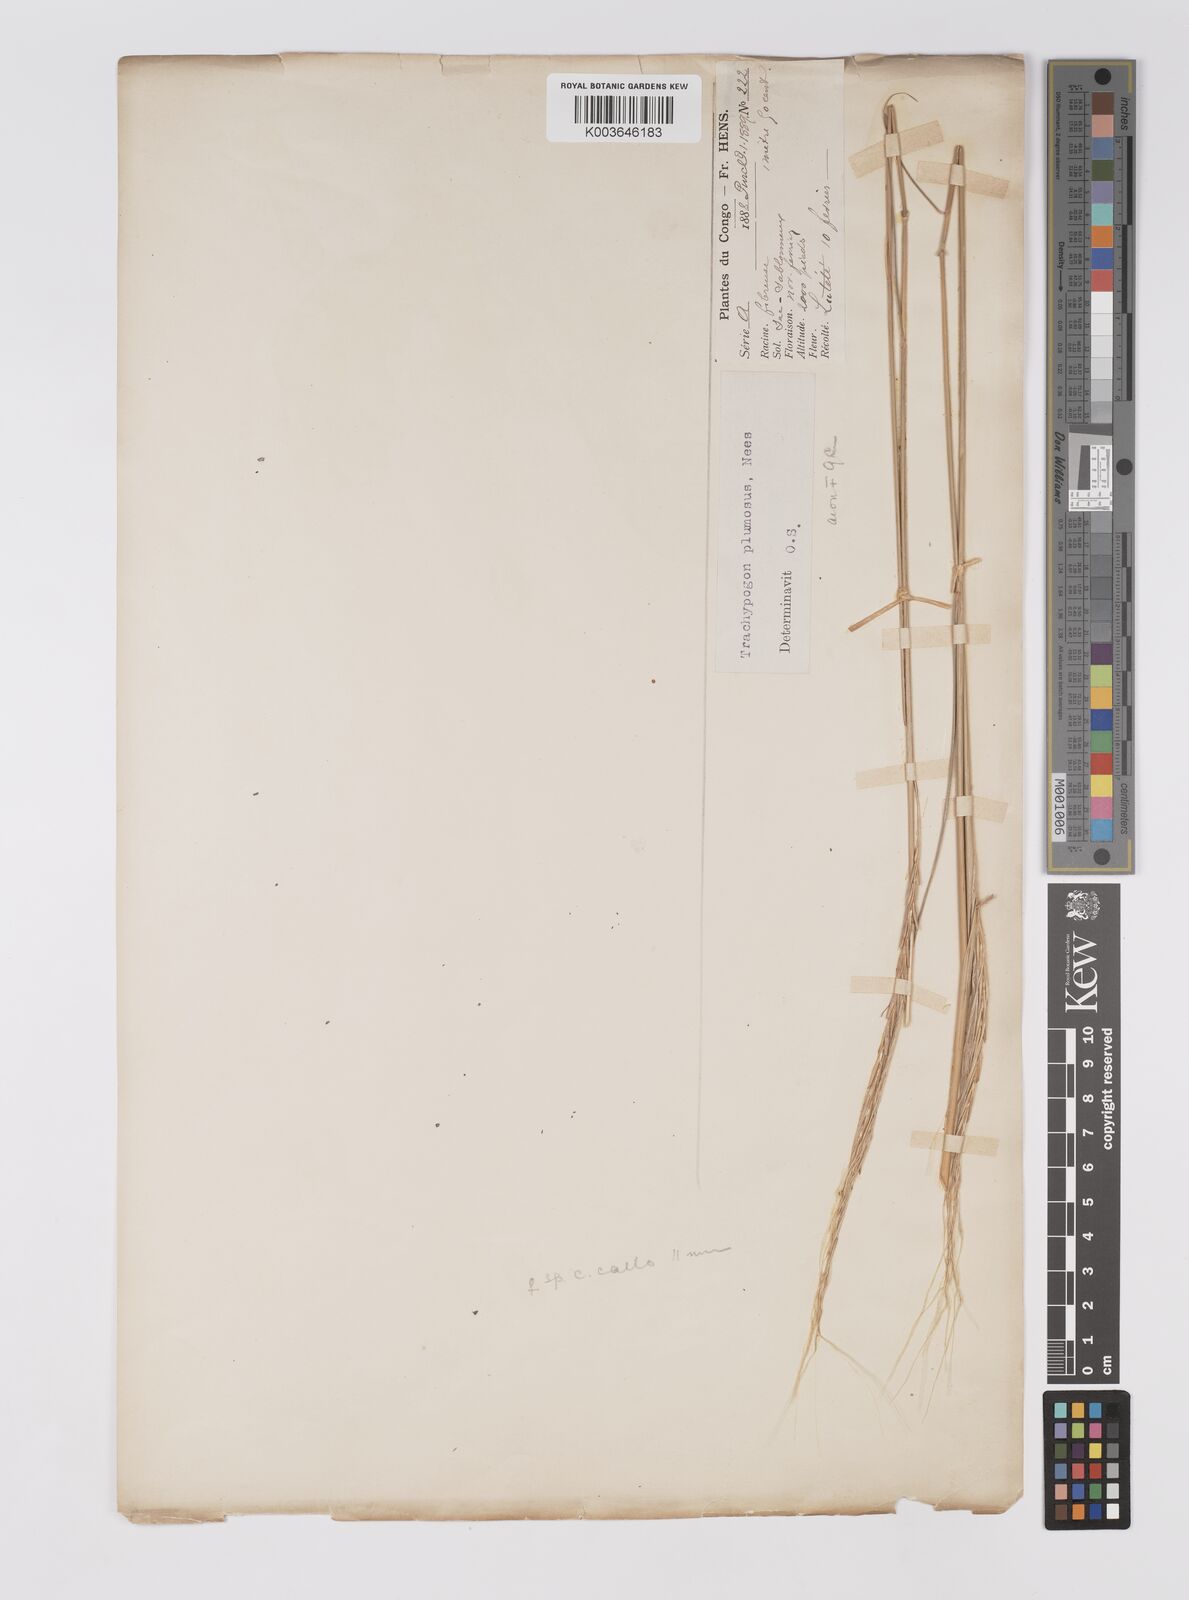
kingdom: Plantae
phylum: Tracheophyta
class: Liliopsida
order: Poales
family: Poaceae
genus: Trachypogon
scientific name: Trachypogon spicatus
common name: Crinkle-awn
